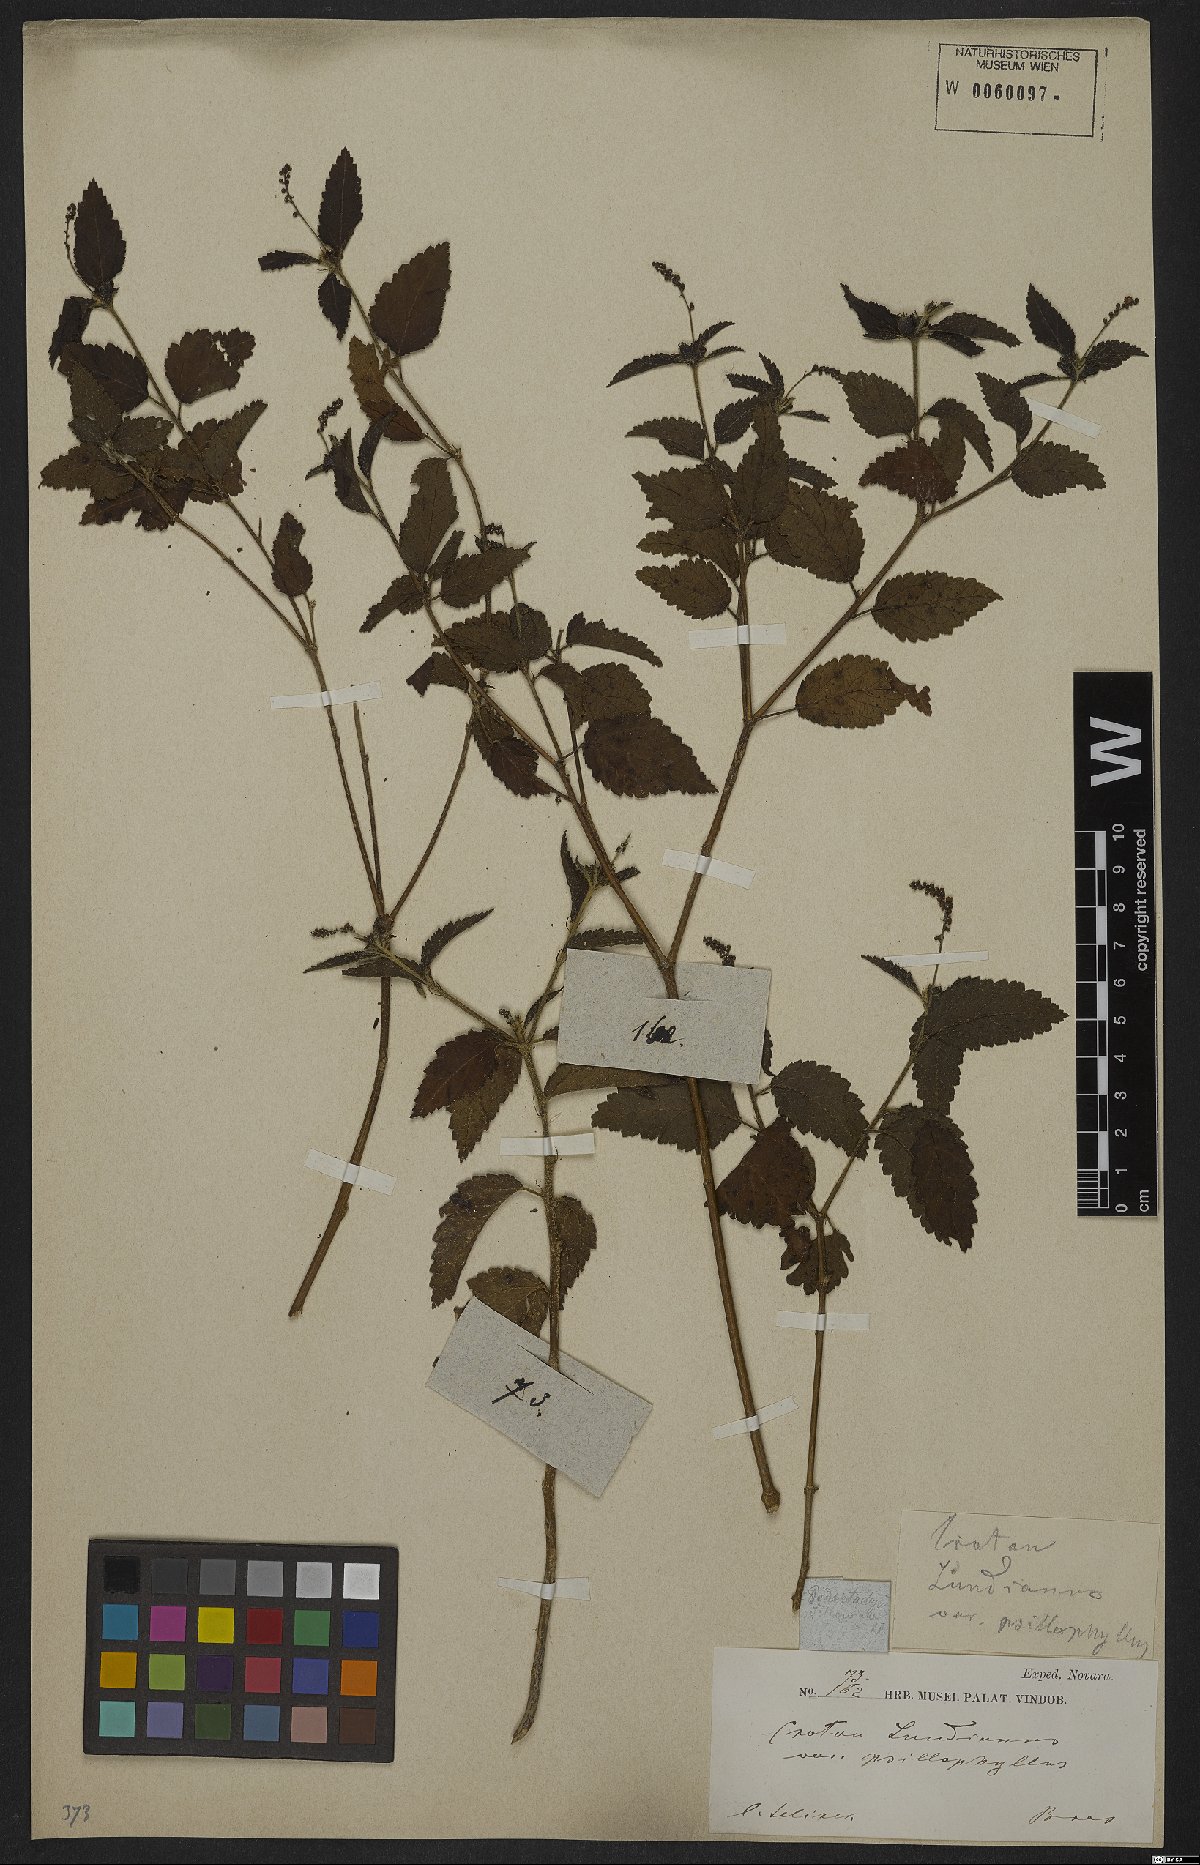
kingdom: Plantae
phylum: Tracheophyta
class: Magnoliopsida
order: Malpighiales
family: Euphorbiaceae
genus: Croton
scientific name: Croton lundianus
